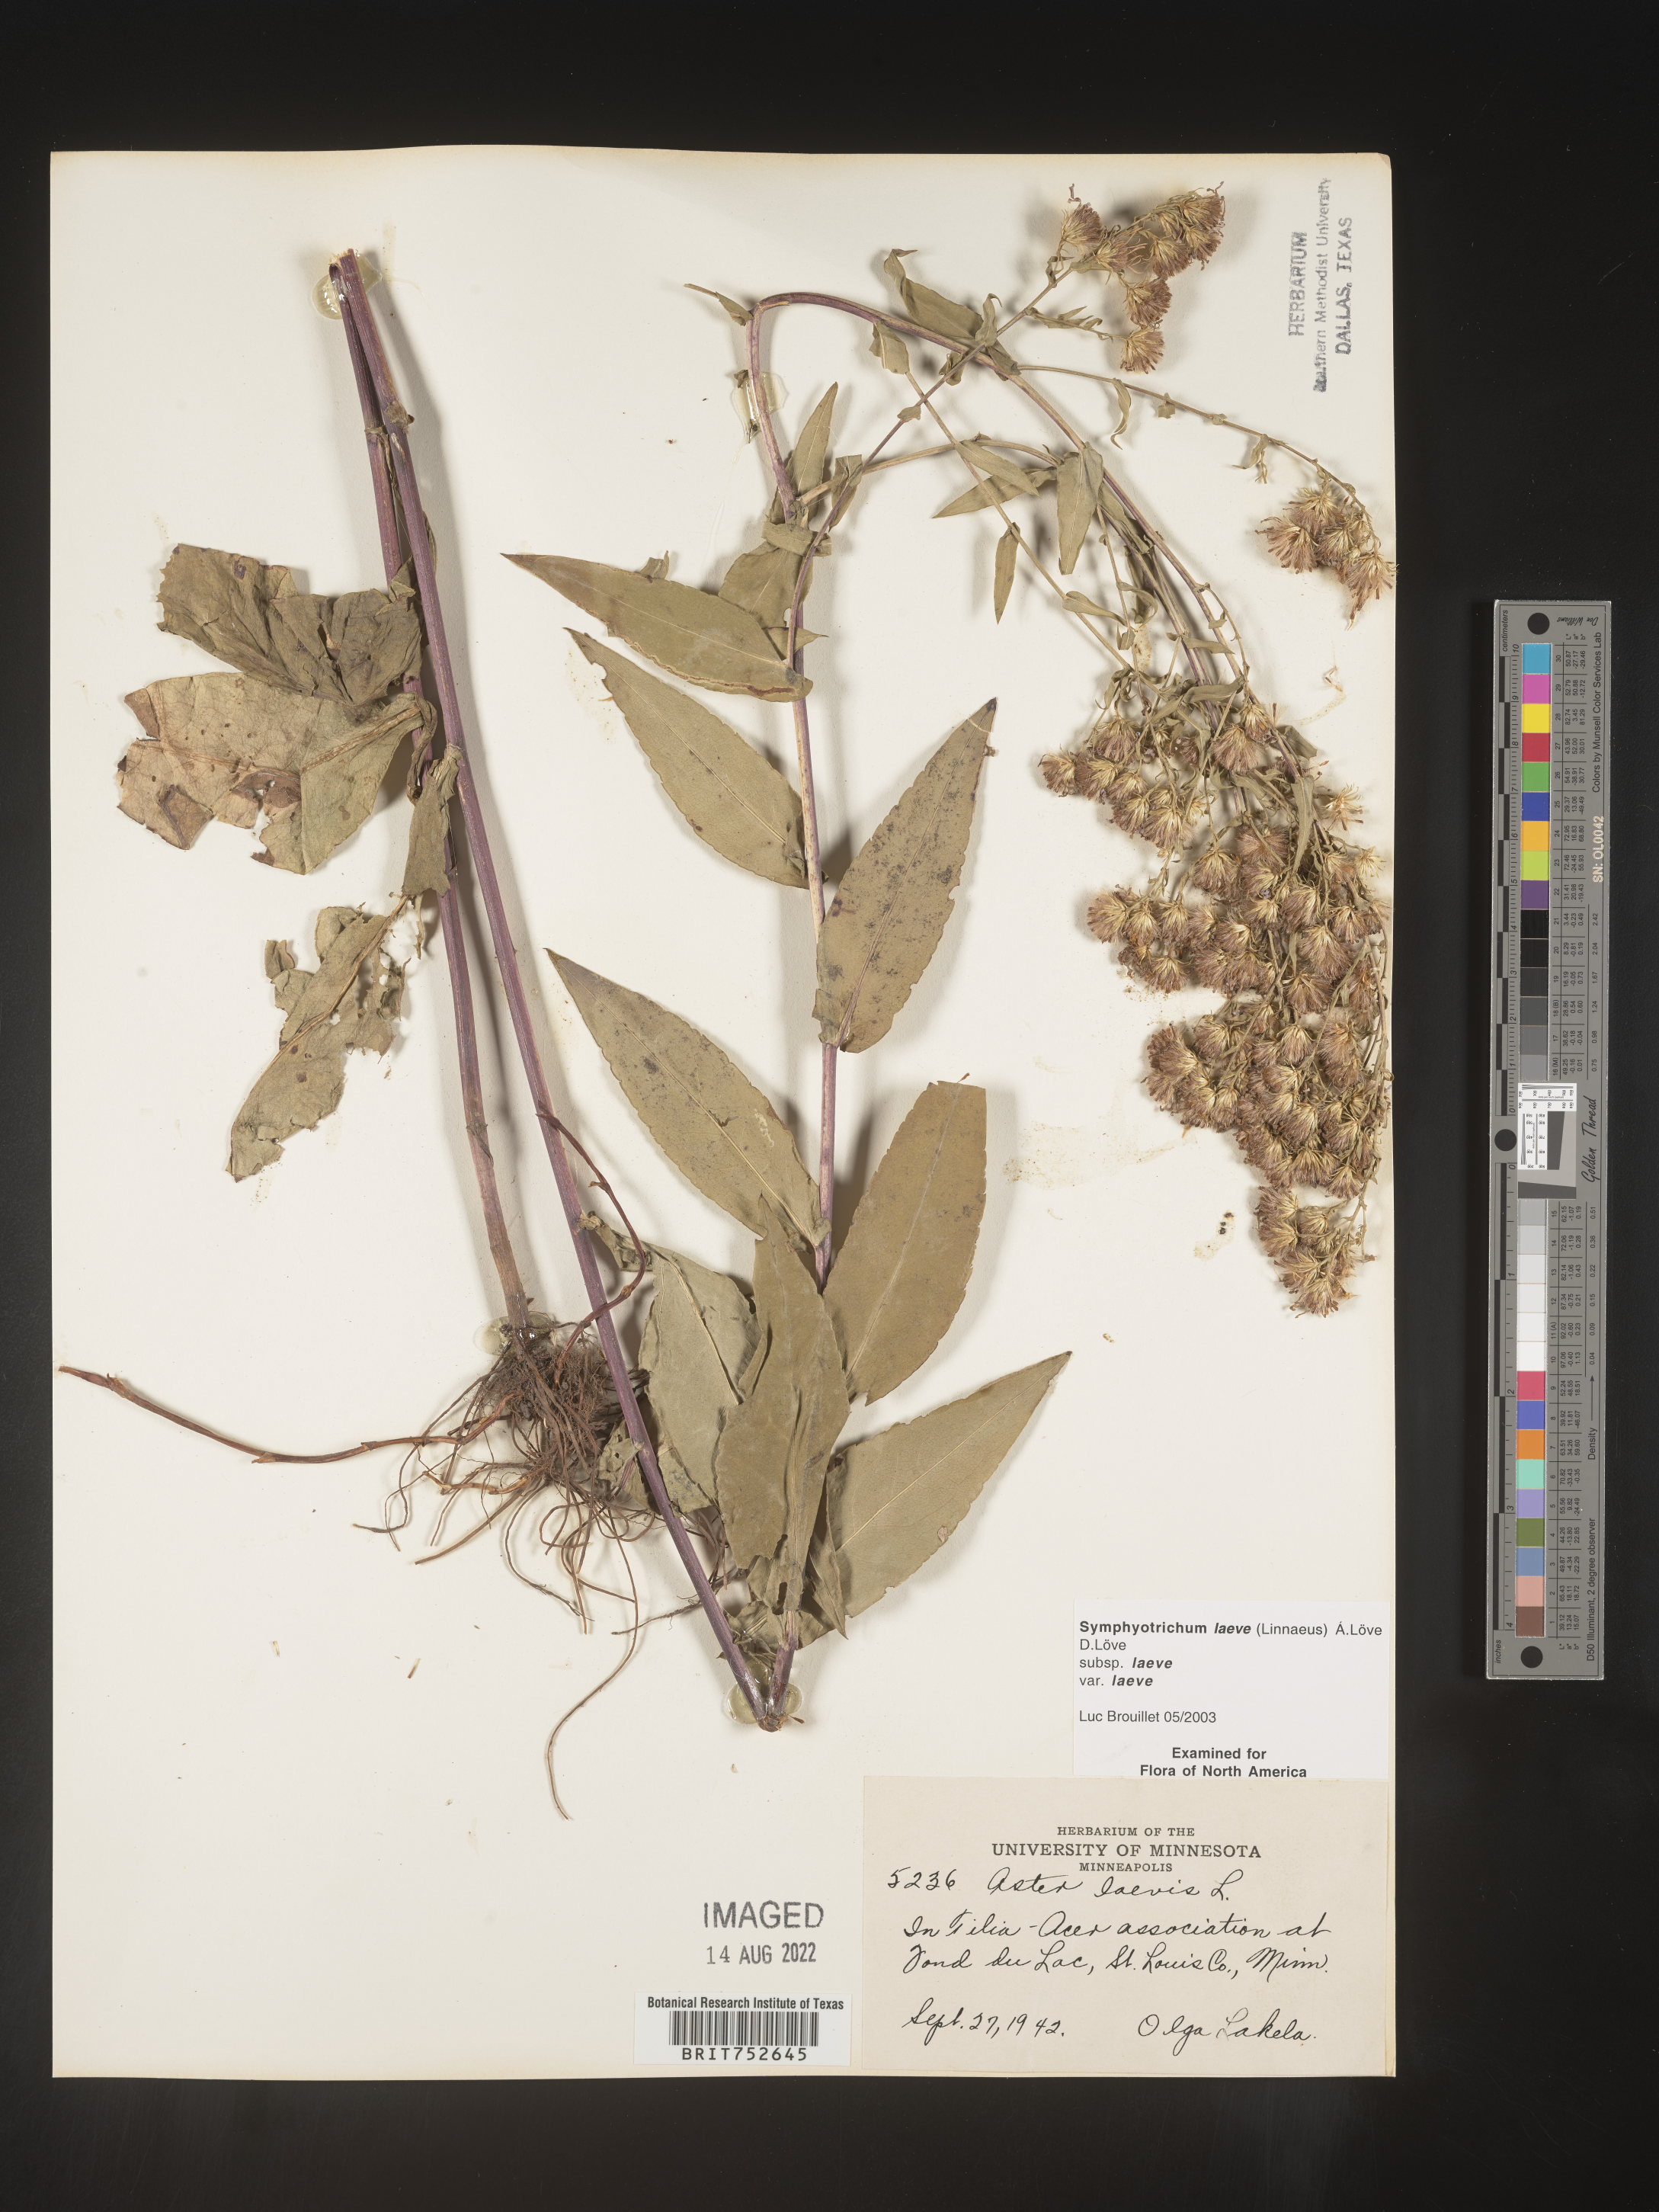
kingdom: Plantae
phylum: Tracheophyta
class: Magnoliopsida
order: Asterales
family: Asteraceae
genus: Symphyotrichum
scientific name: Symphyotrichum laeve
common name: Glaucous aster
